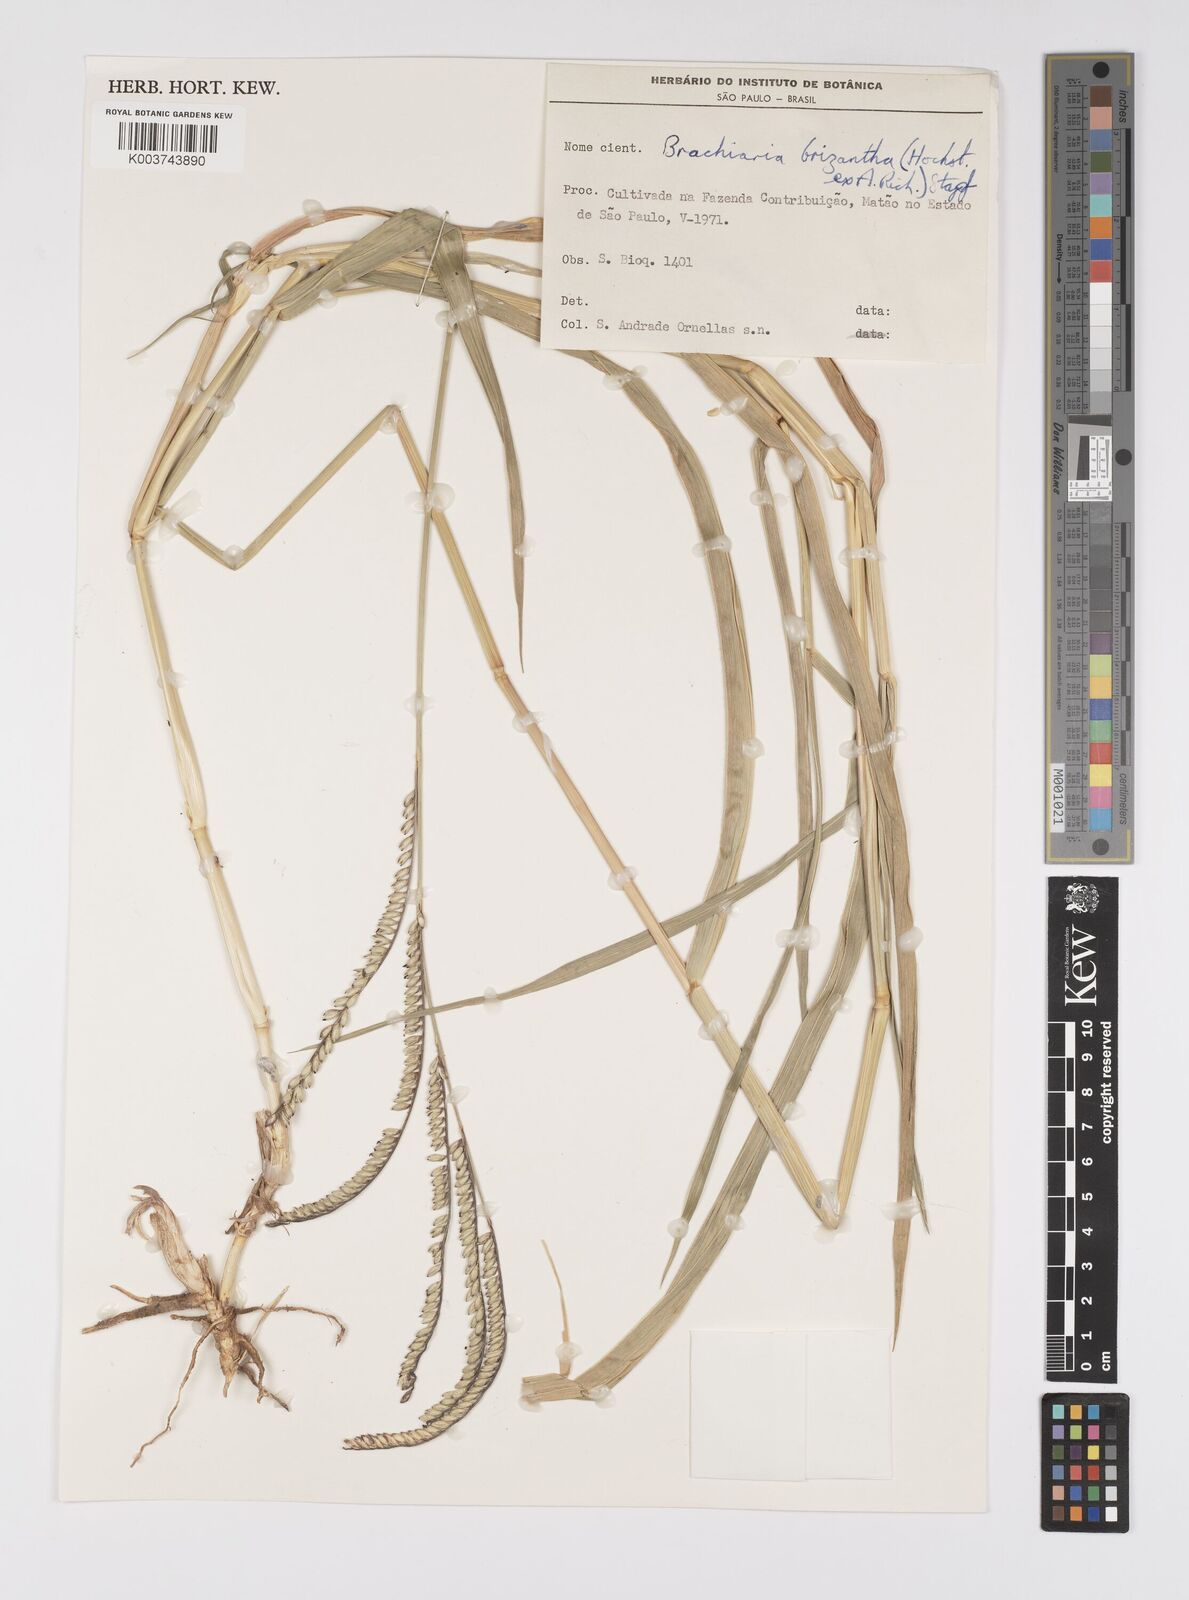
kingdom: Plantae
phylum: Tracheophyta
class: Liliopsida
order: Poales
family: Poaceae
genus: Urochloa
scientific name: Urochloa brizantha
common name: Palisade signalgrass
